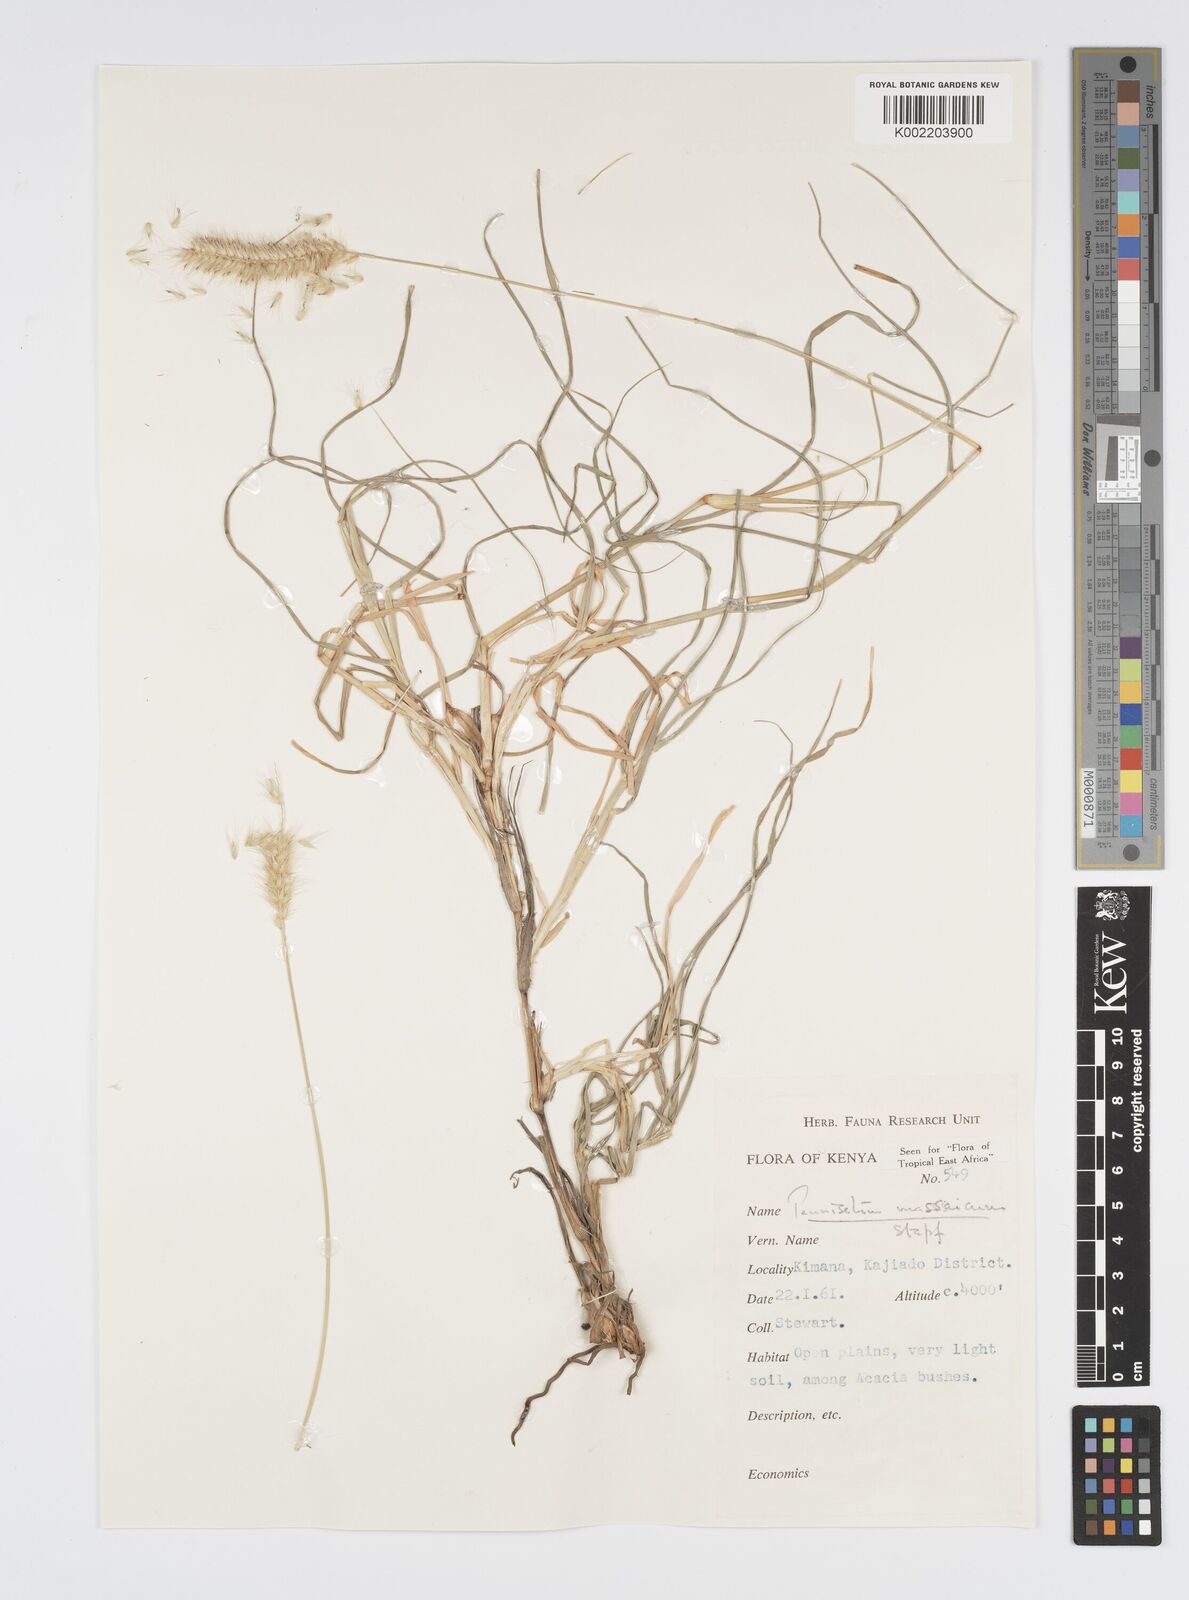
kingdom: Plantae
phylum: Tracheophyta
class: Liliopsida
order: Poales
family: Poaceae
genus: Cenchrus
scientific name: Cenchrus massaicus
